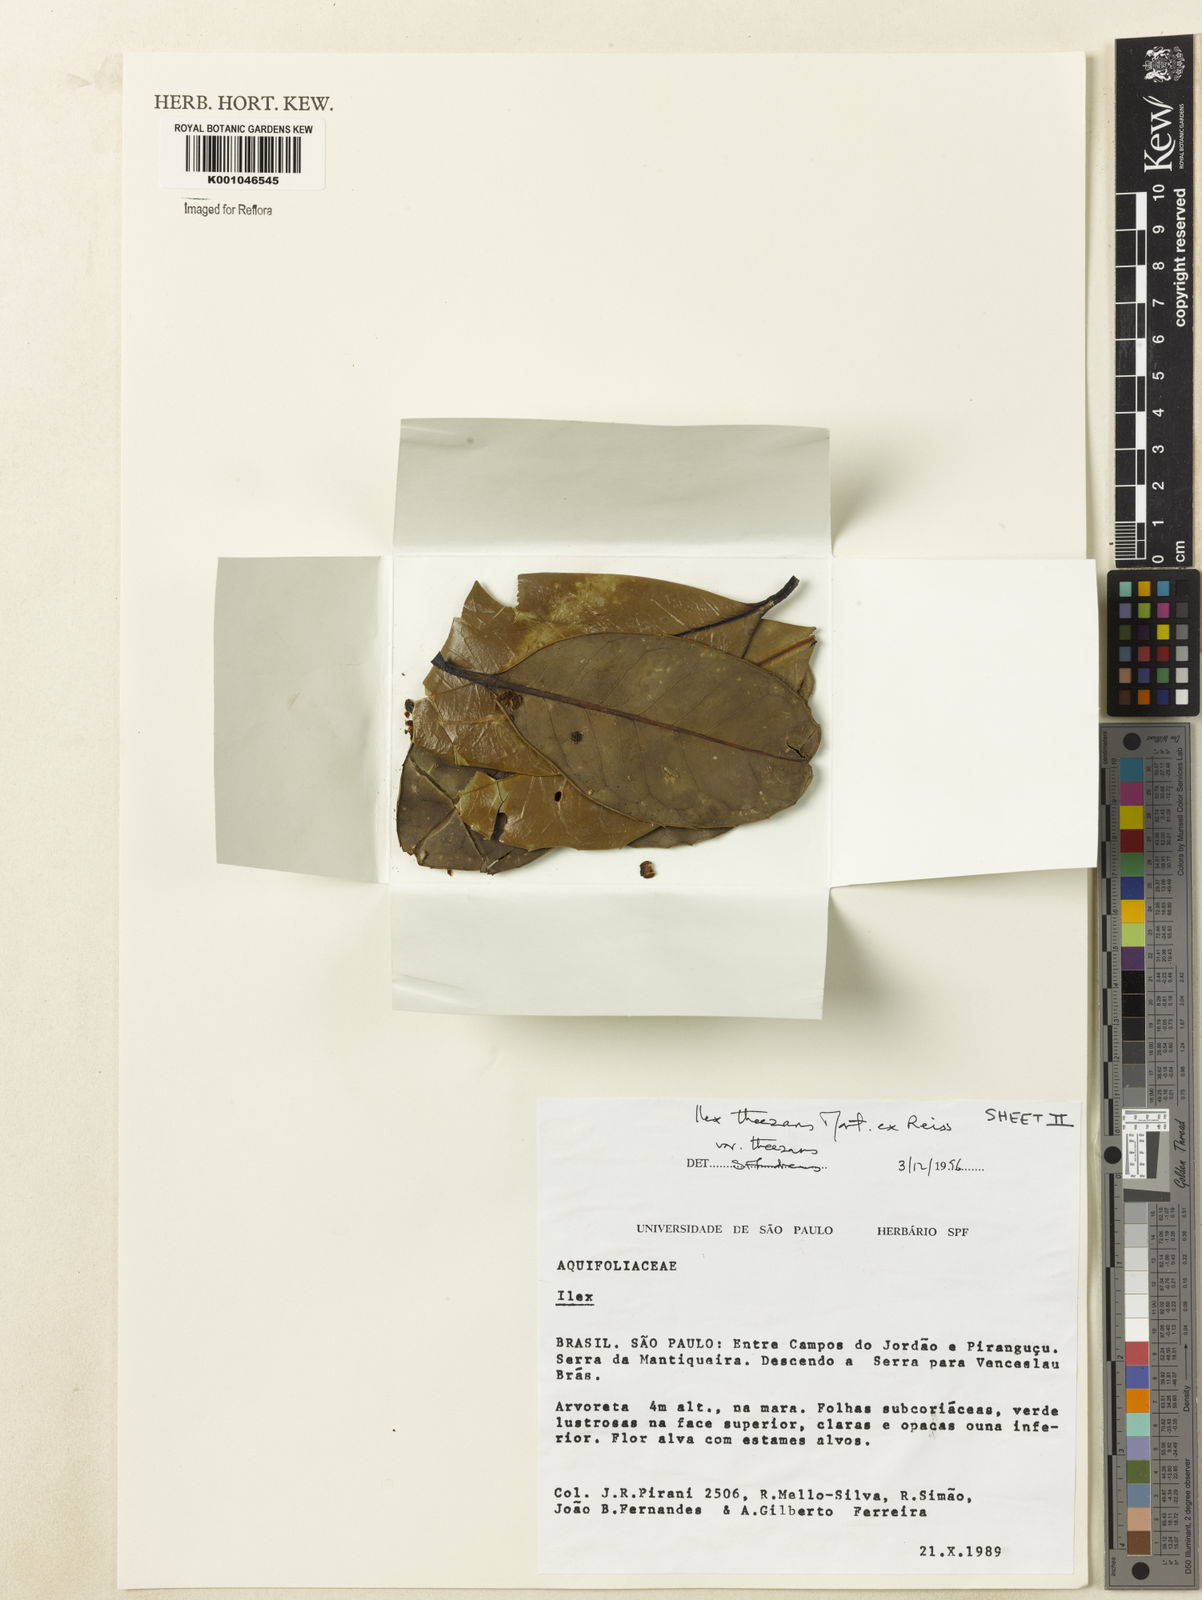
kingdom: Plantae
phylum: Tracheophyta
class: Magnoliopsida
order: Aquifoliales
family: Aquifoliaceae
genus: Ilex
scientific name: Ilex theezans
